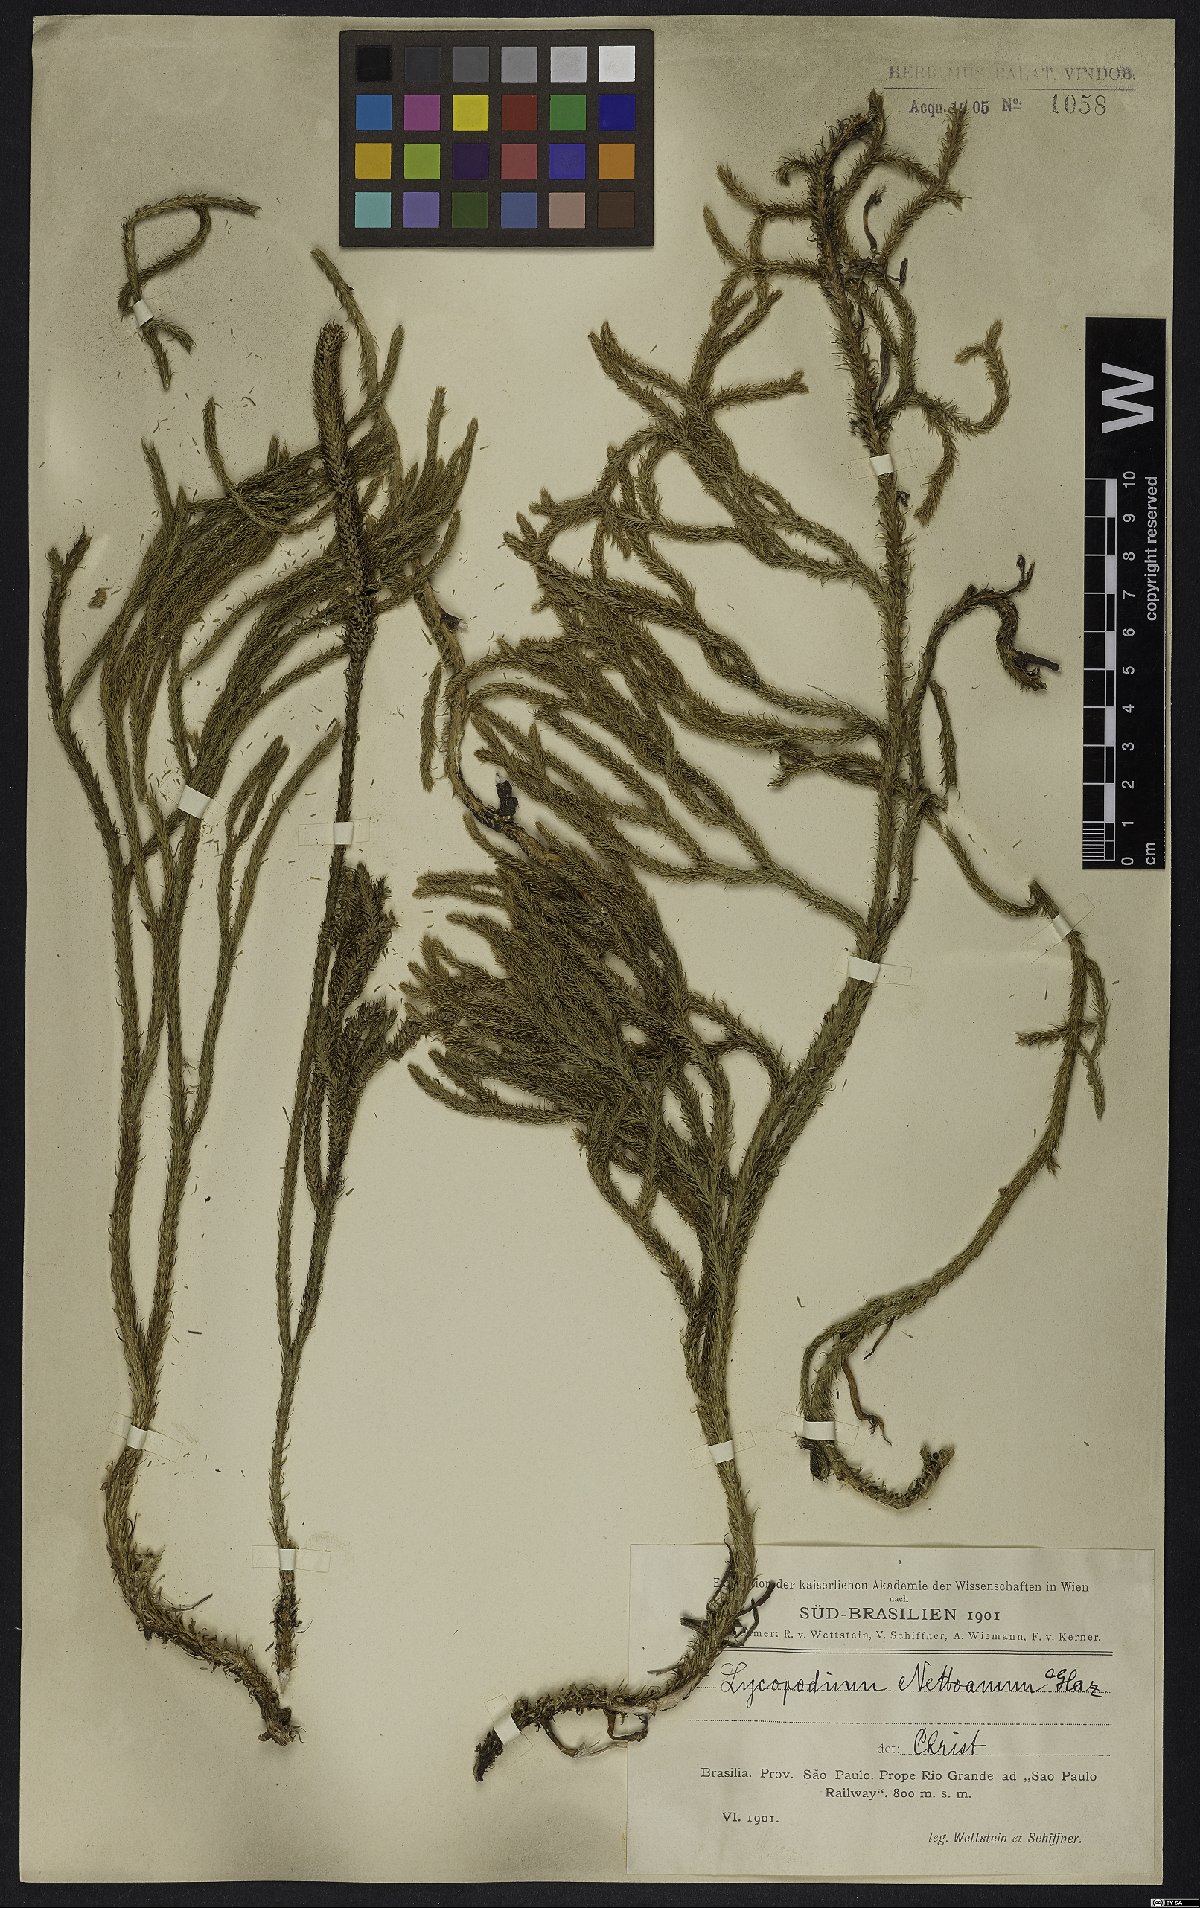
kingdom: Plantae
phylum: Tracheophyta
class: Lycopodiopsida
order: Lycopodiales
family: Lycopodiaceae
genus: Lycopodiella
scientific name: Lycopodiella geometra
